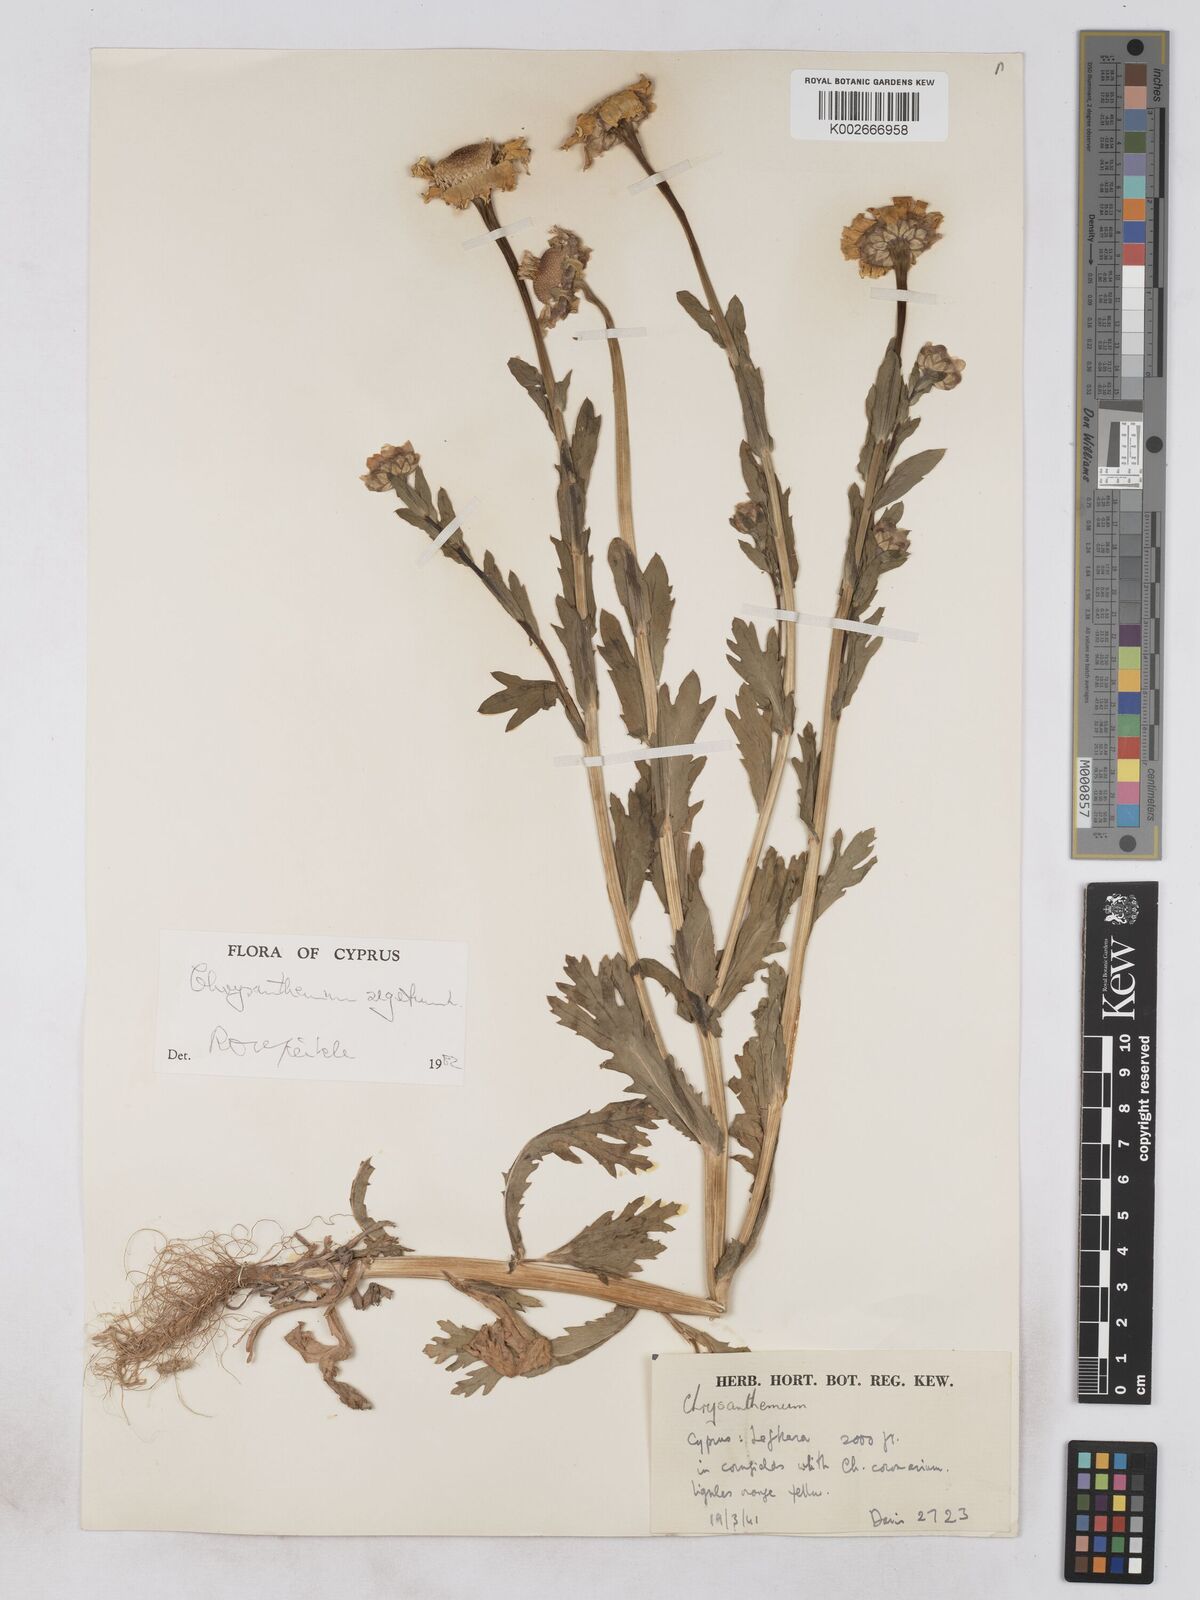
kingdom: Plantae
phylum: Tracheophyta
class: Magnoliopsida
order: Asterales
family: Asteraceae
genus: Glebionis
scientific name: Glebionis segetum
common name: Corndaisy
